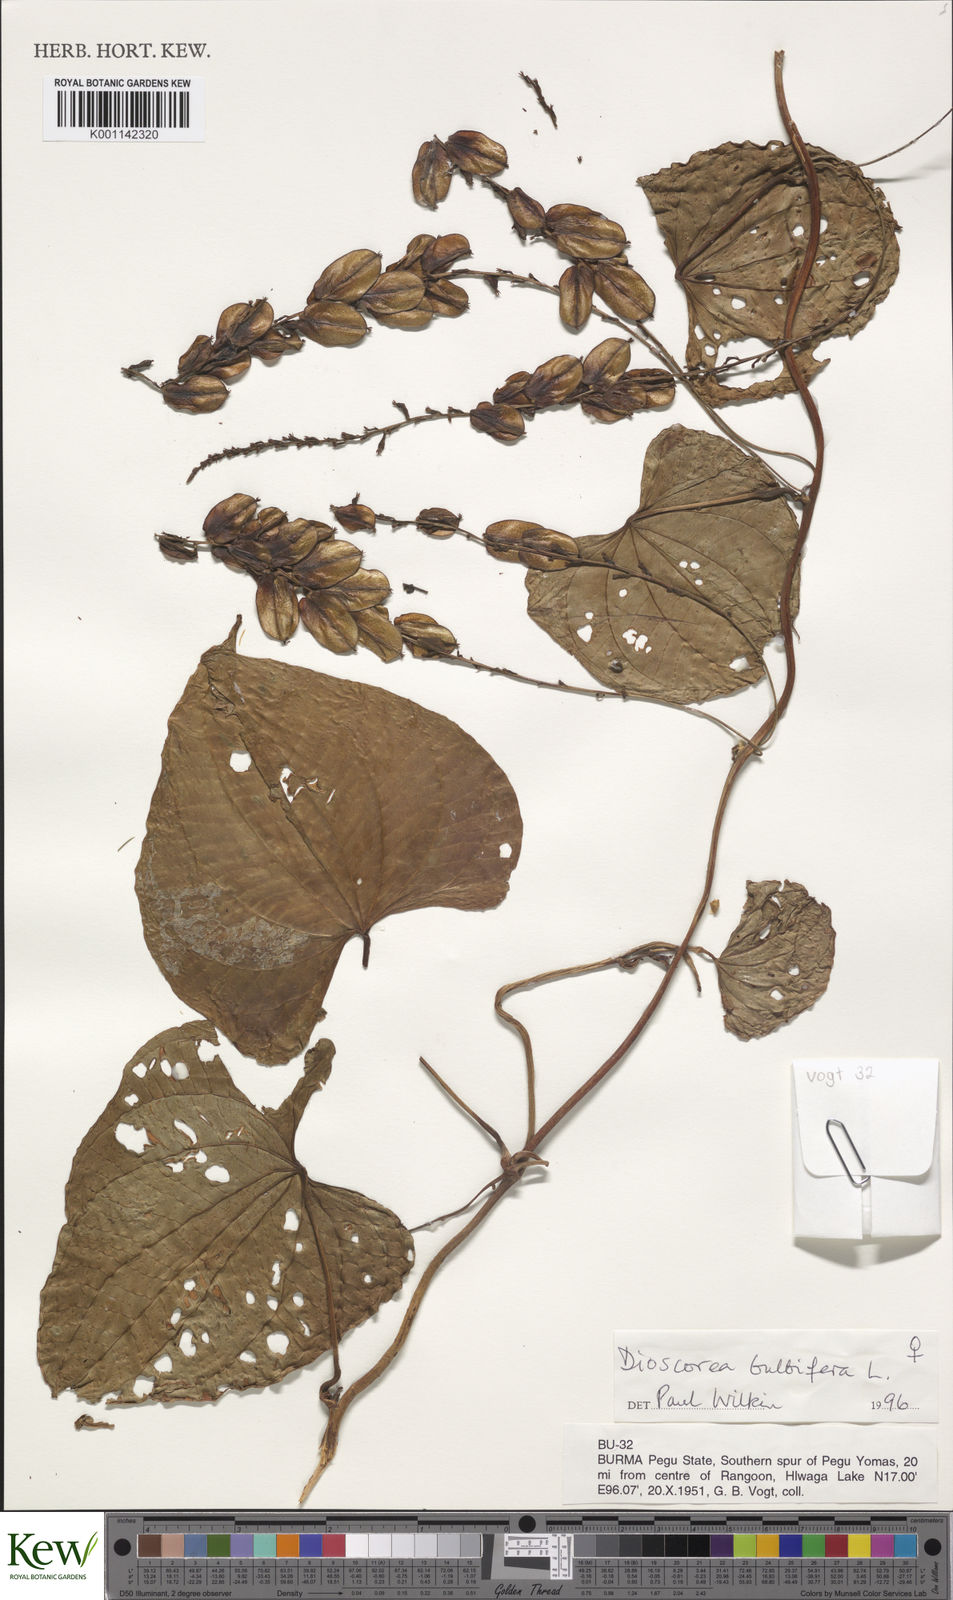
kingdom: Plantae
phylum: Tracheophyta
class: Liliopsida
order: Dioscoreales
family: Dioscoreaceae
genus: Dioscorea
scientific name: Dioscorea bulbifera
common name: Air yam
